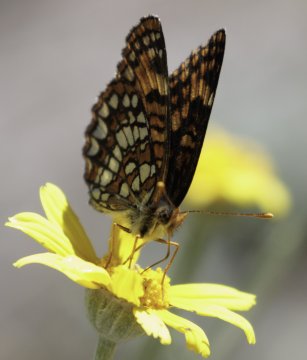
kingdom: Animalia
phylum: Arthropoda
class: Insecta
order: Lepidoptera
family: Nymphalidae
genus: Chlosyne
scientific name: Chlosyne hoffmanni
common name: Hoffmann's Checkerspot
